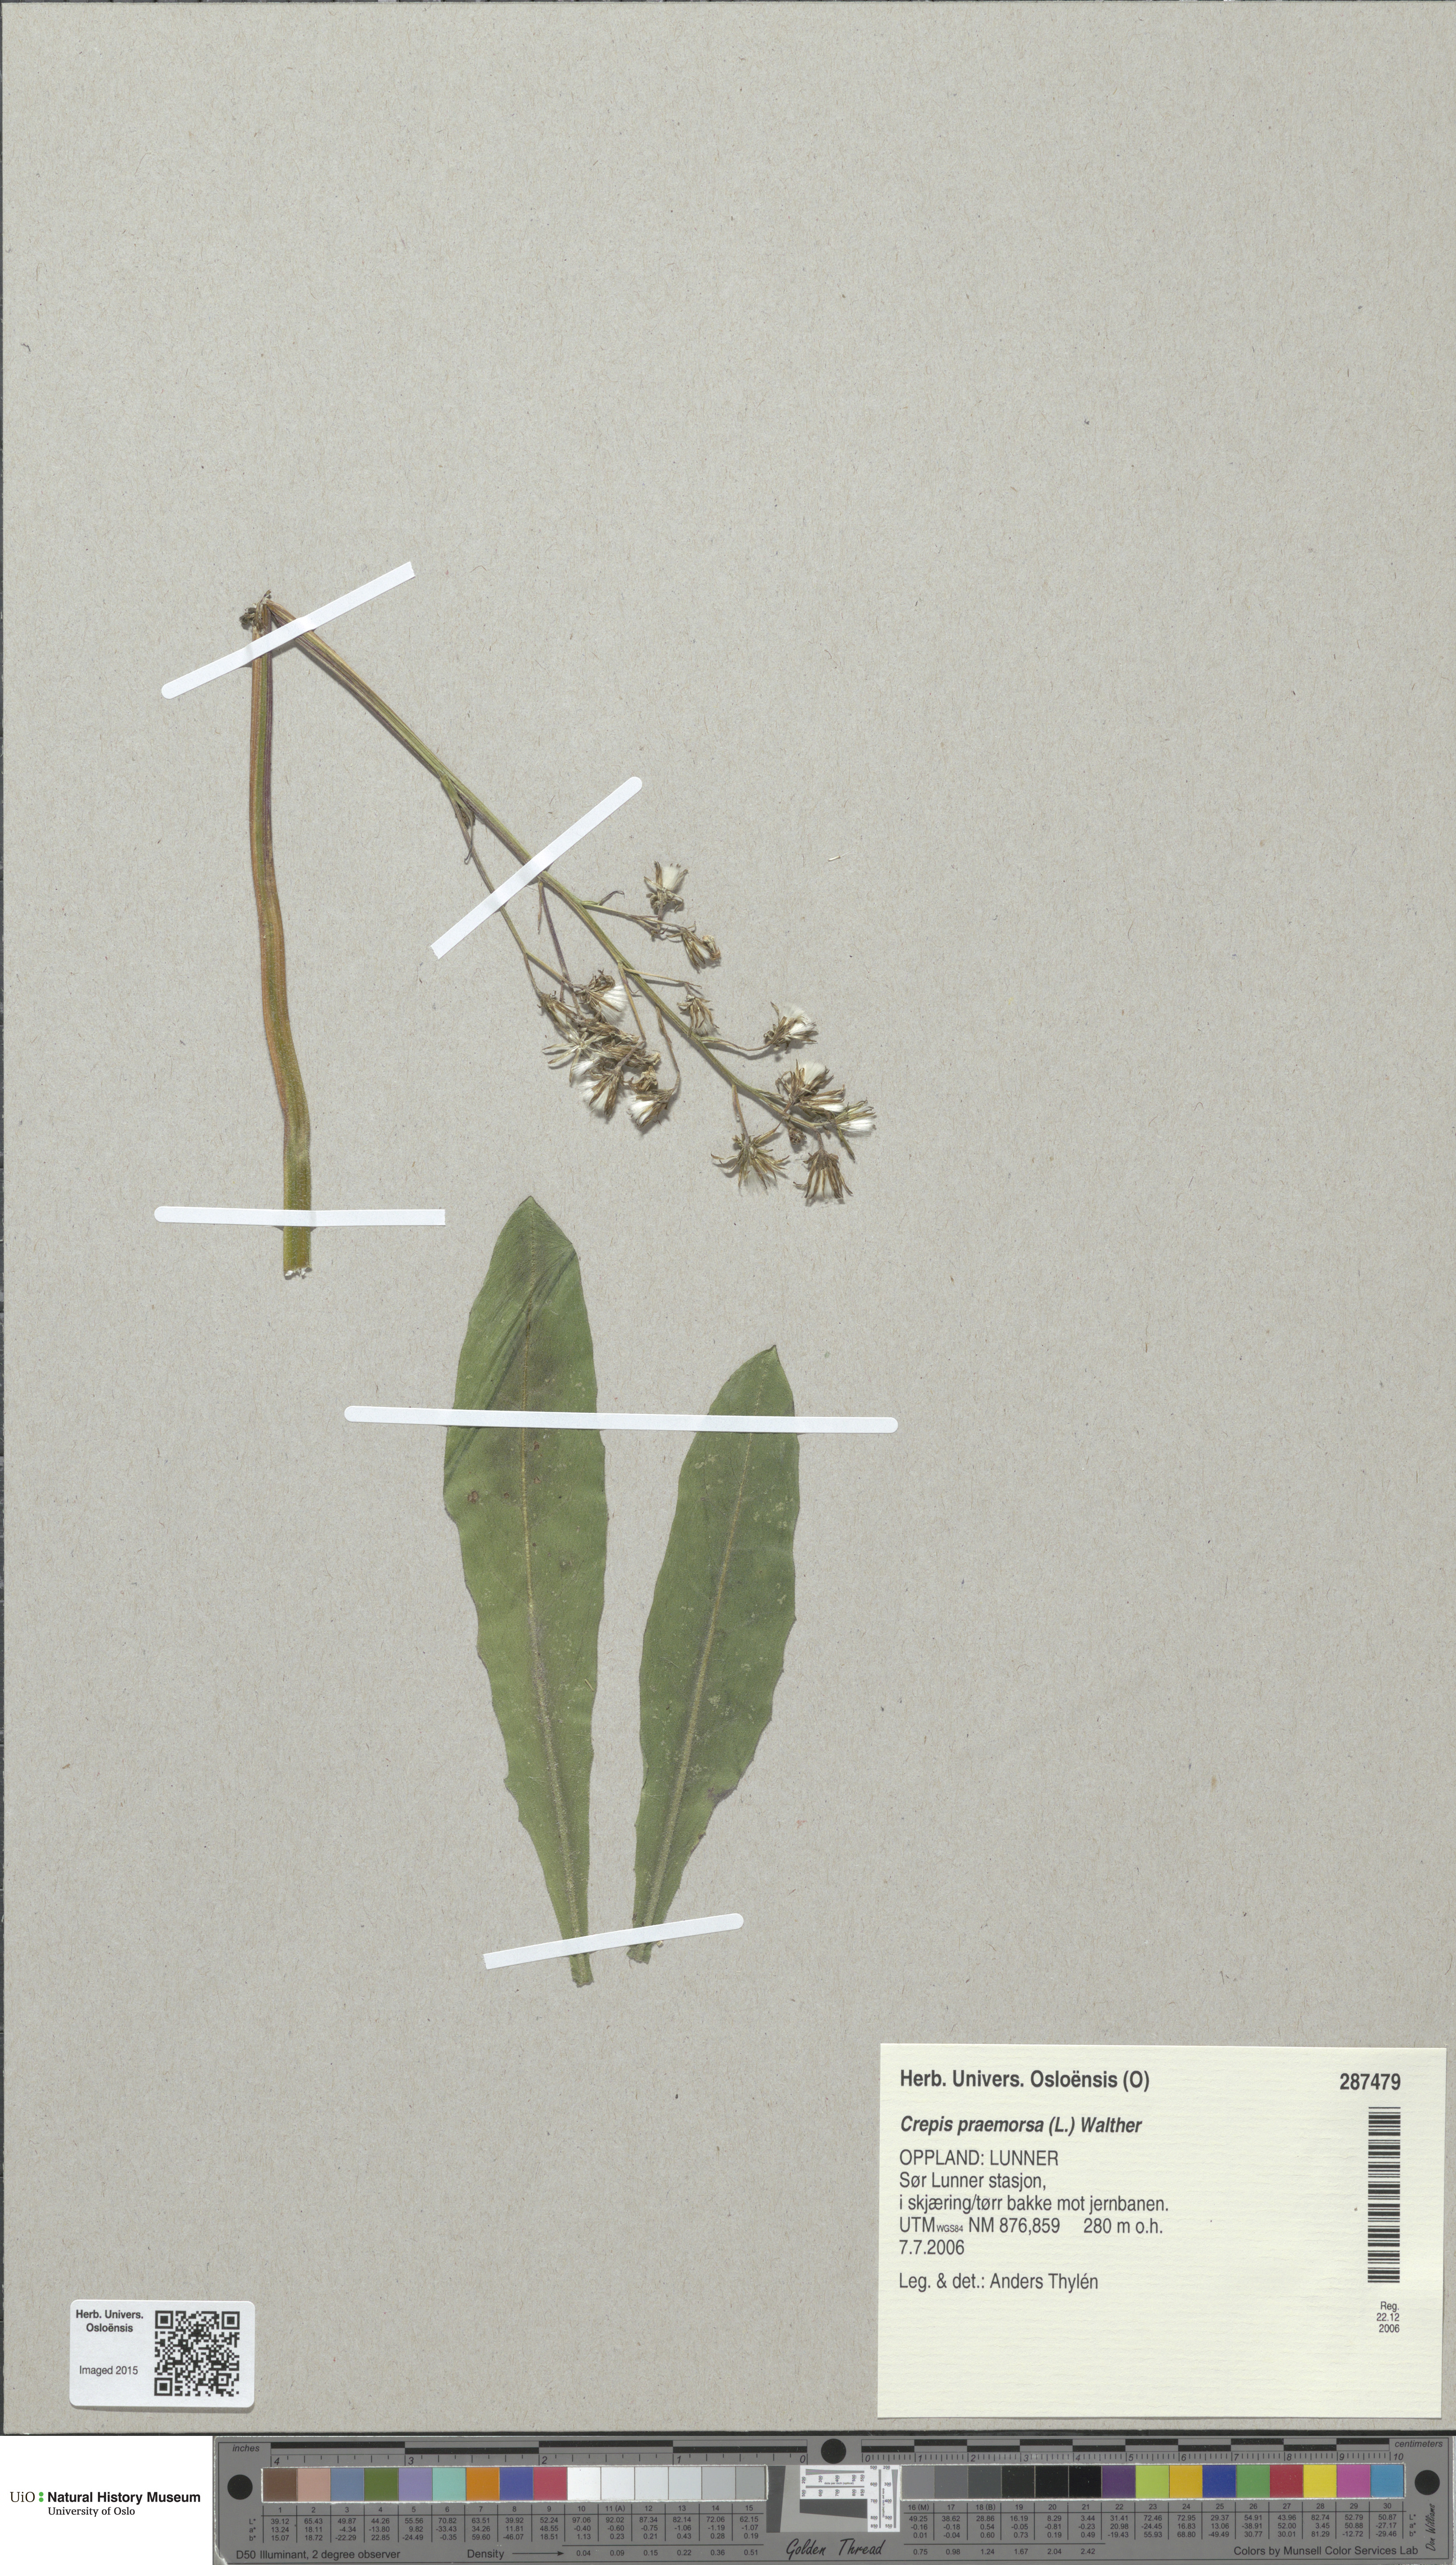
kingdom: Plantae
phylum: Tracheophyta
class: Magnoliopsida
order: Asterales
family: Asteraceae
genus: Crepis
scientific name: Crepis praemorsa
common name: Leafless hawk's-beard
